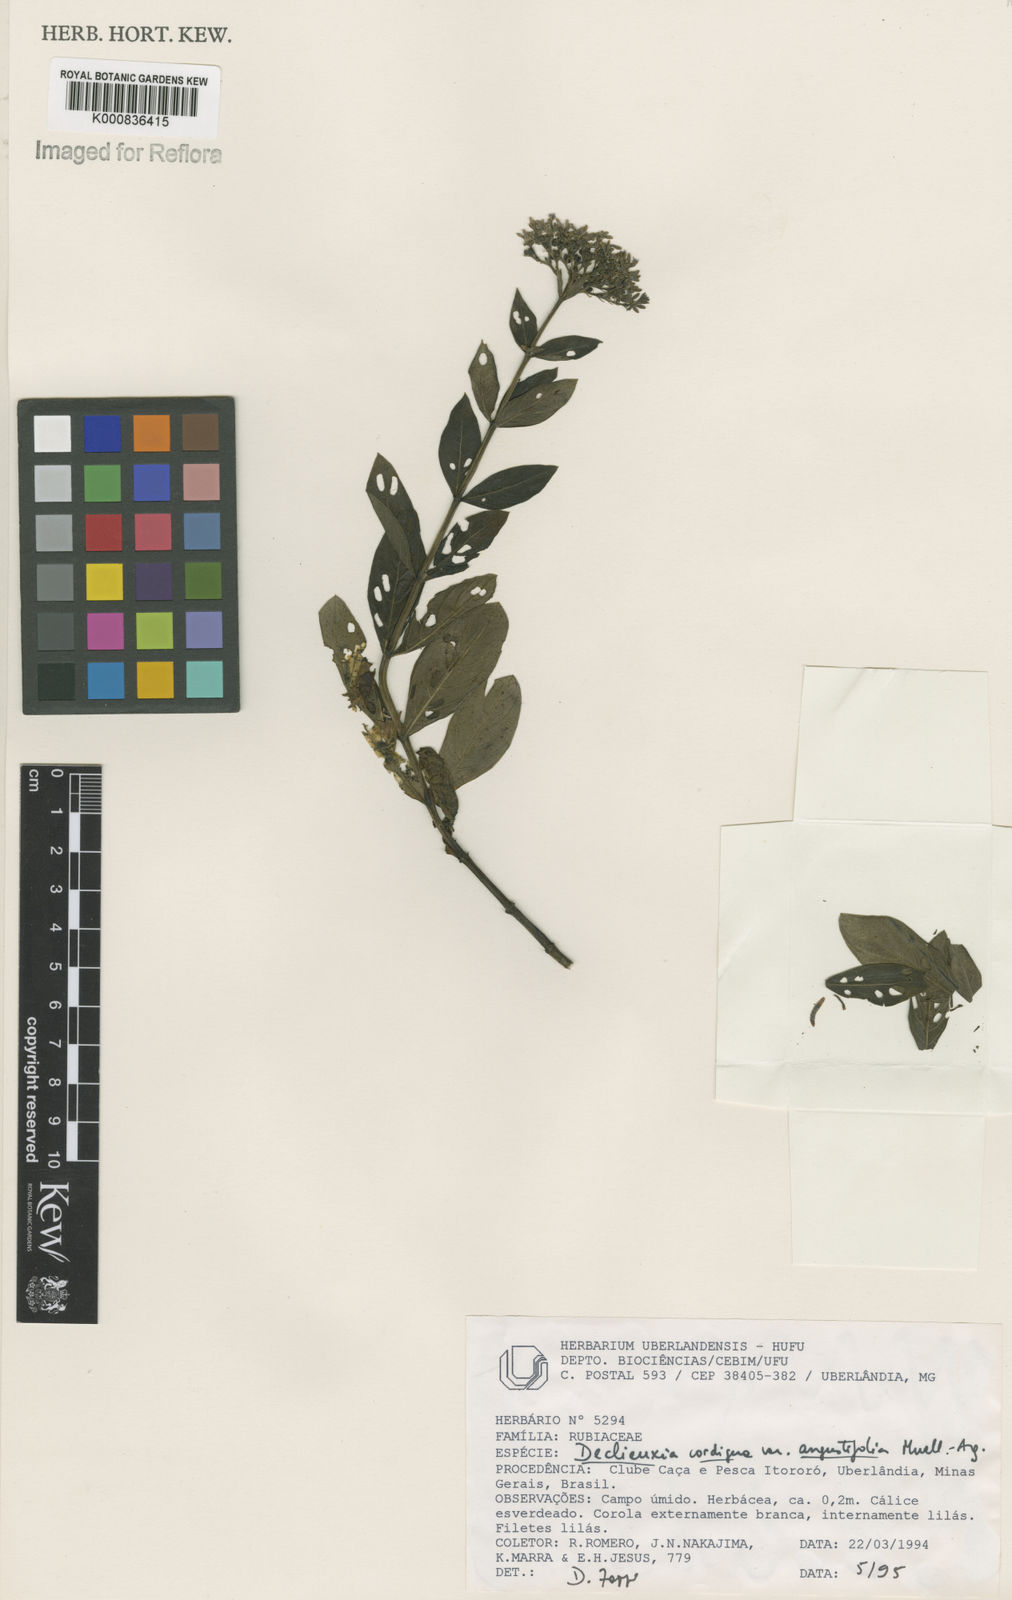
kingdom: Plantae
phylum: Tracheophyta
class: Magnoliopsida
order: Gentianales
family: Rubiaceae
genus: Declieuxia
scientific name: Declieuxia
